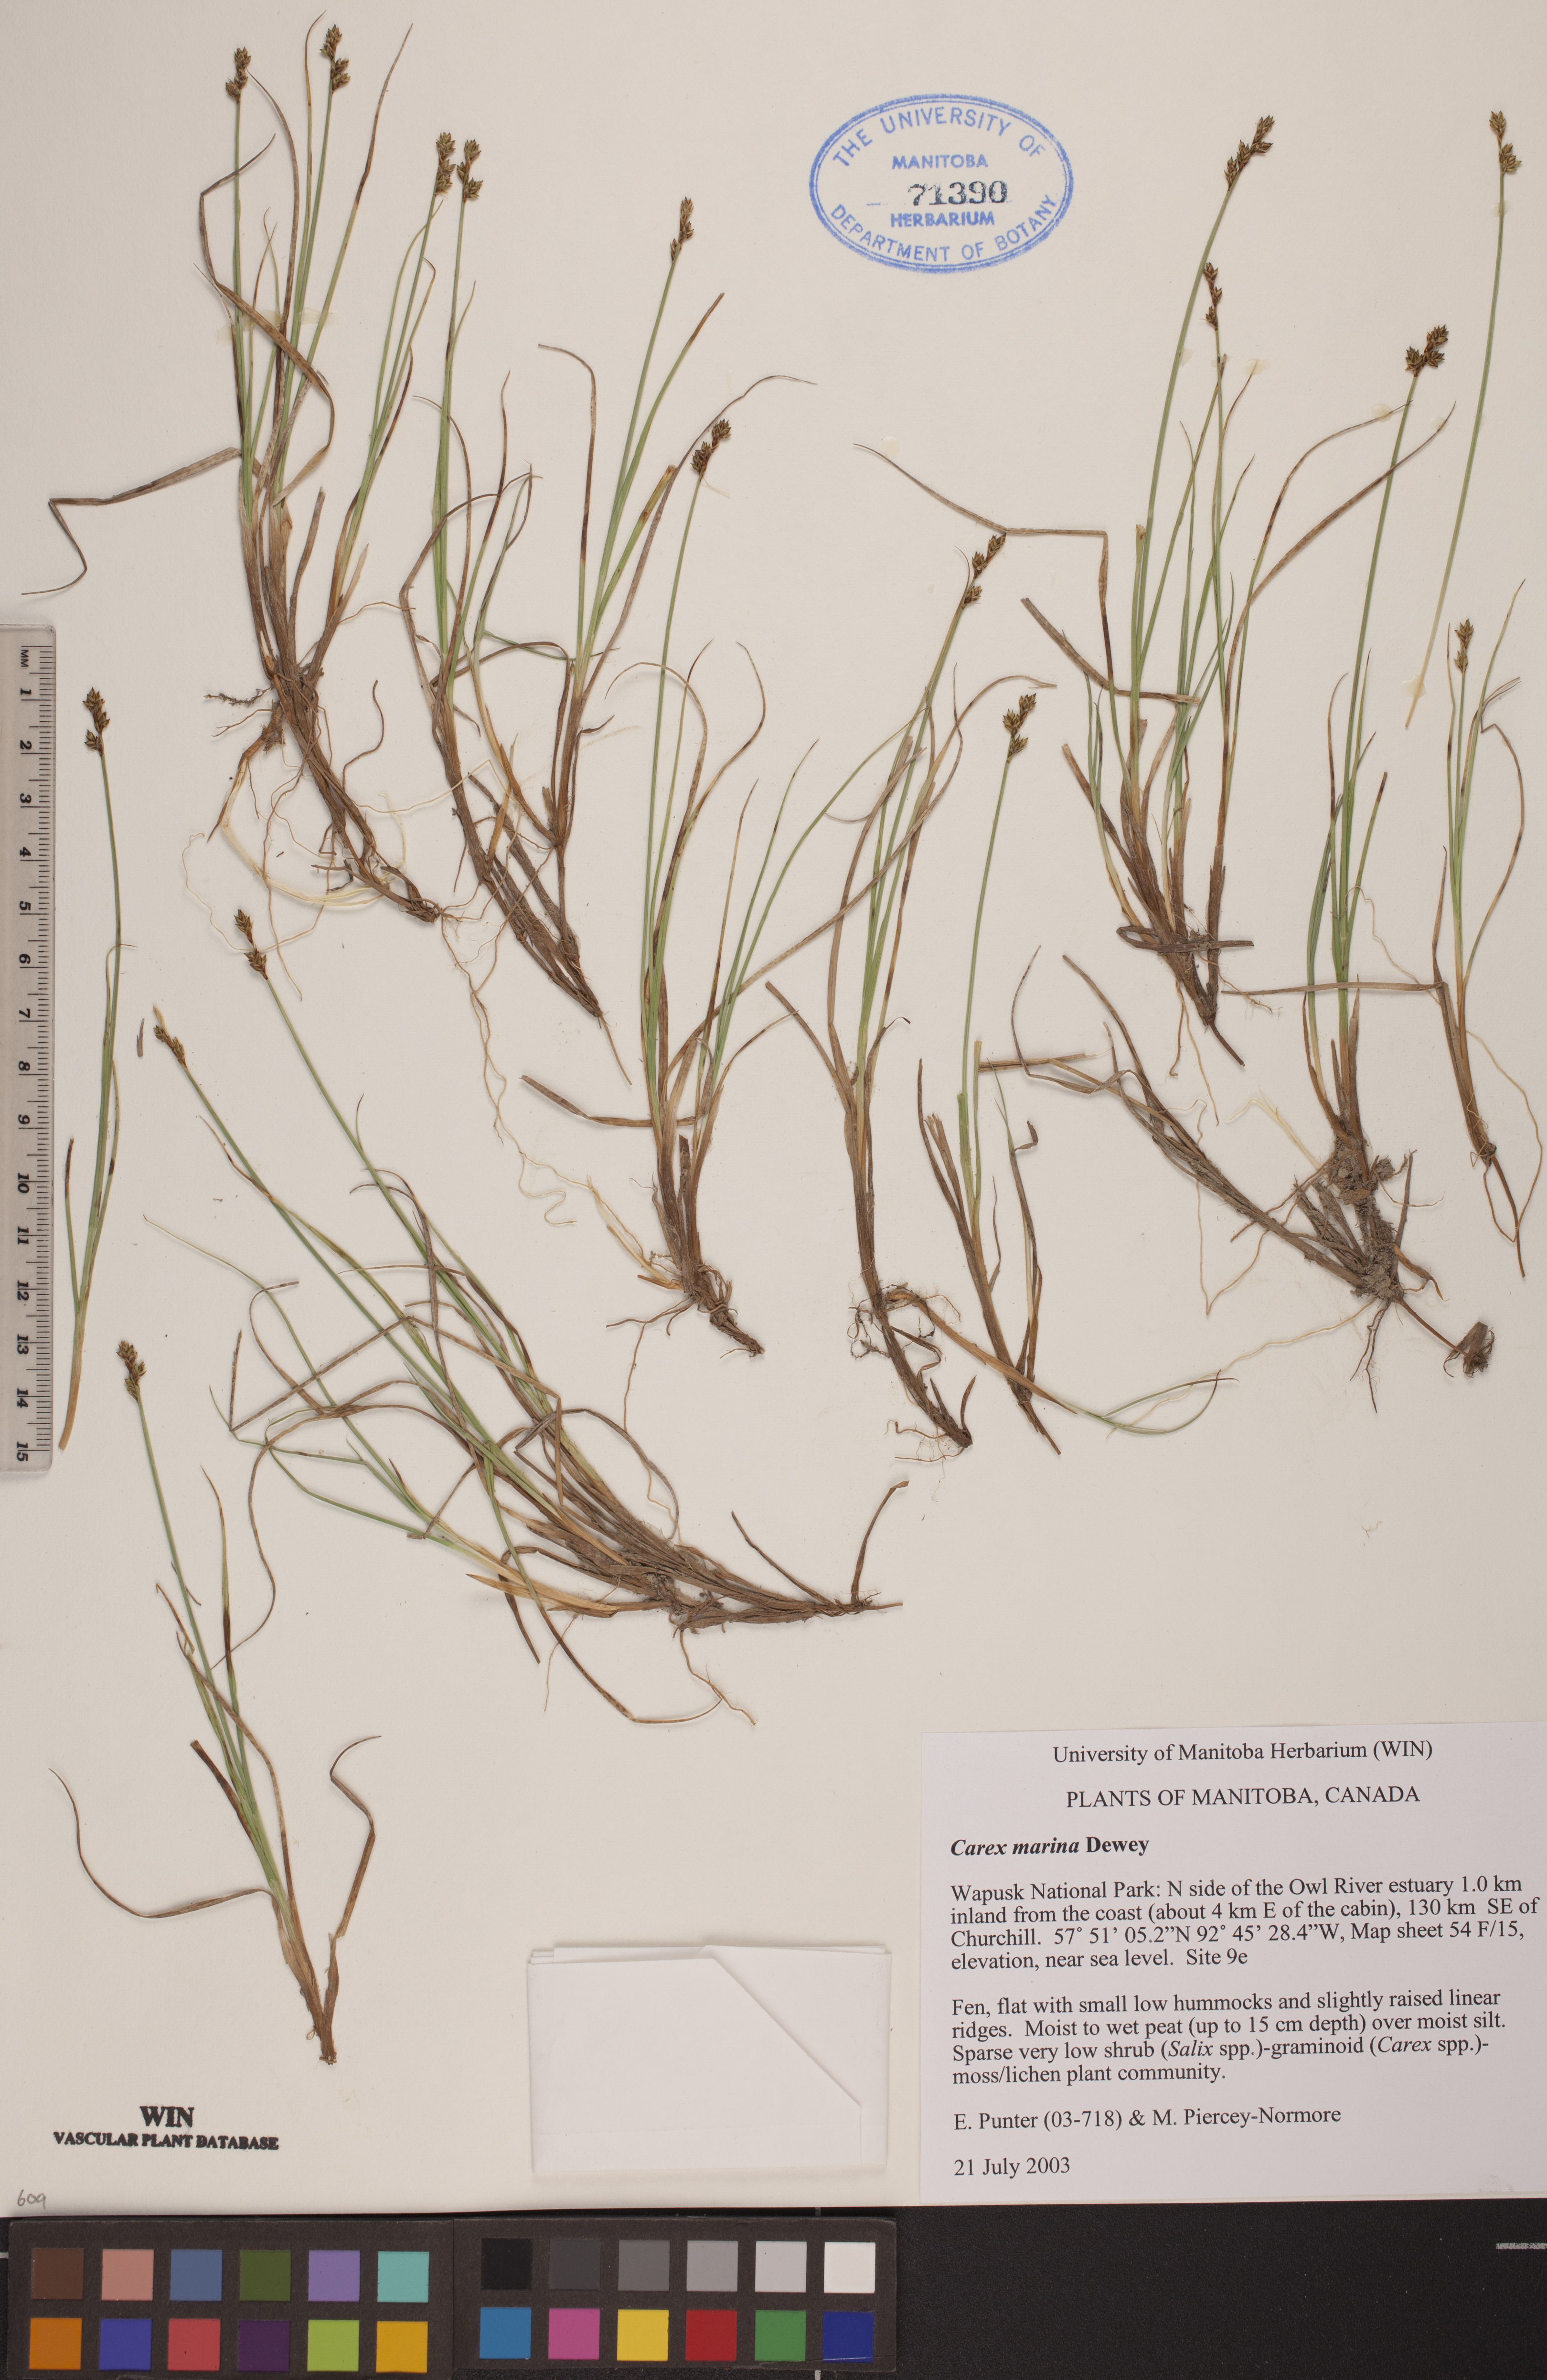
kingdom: Plantae
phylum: Tracheophyta
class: Liliopsida
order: Poales
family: Cyperaceae
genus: Carex
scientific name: Carex marina
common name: Seashore sedge
